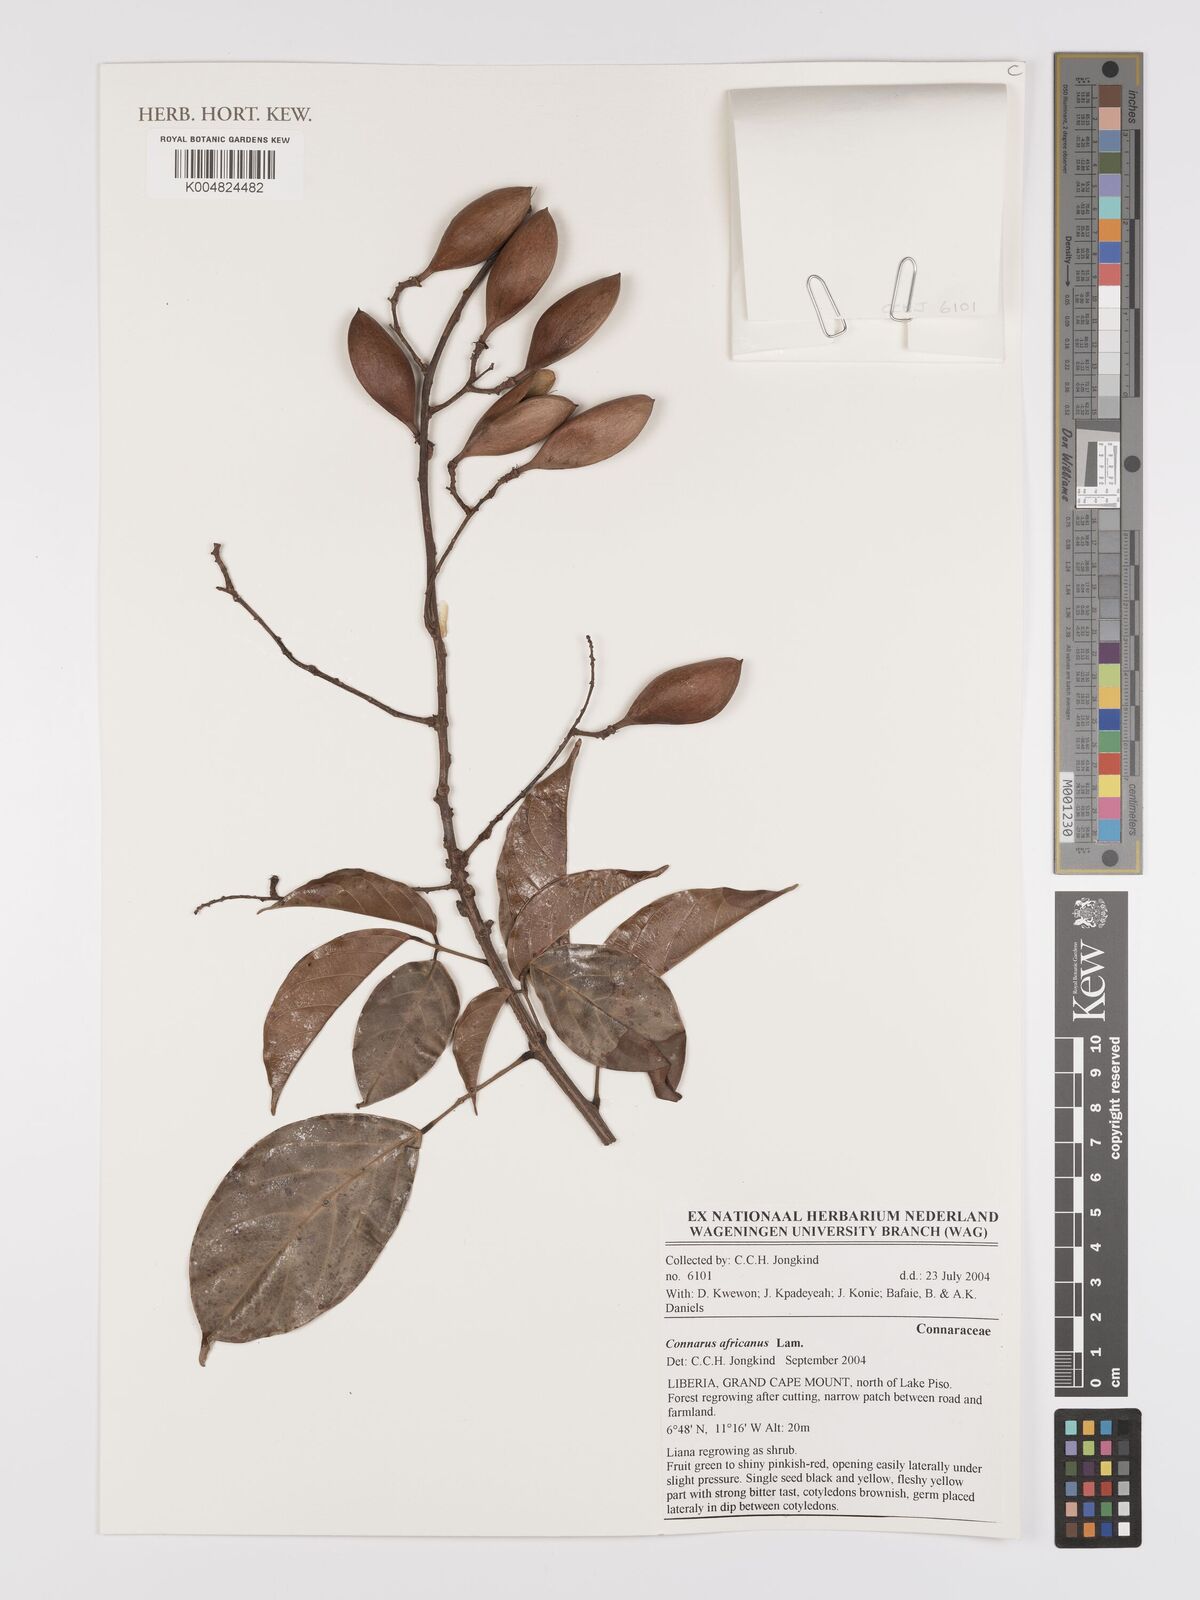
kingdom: Plantae
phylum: Tracheophyta
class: Magnoliopsida
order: Oxalidales
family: Connaraceae
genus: Connarus
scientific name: Connarus africanus
